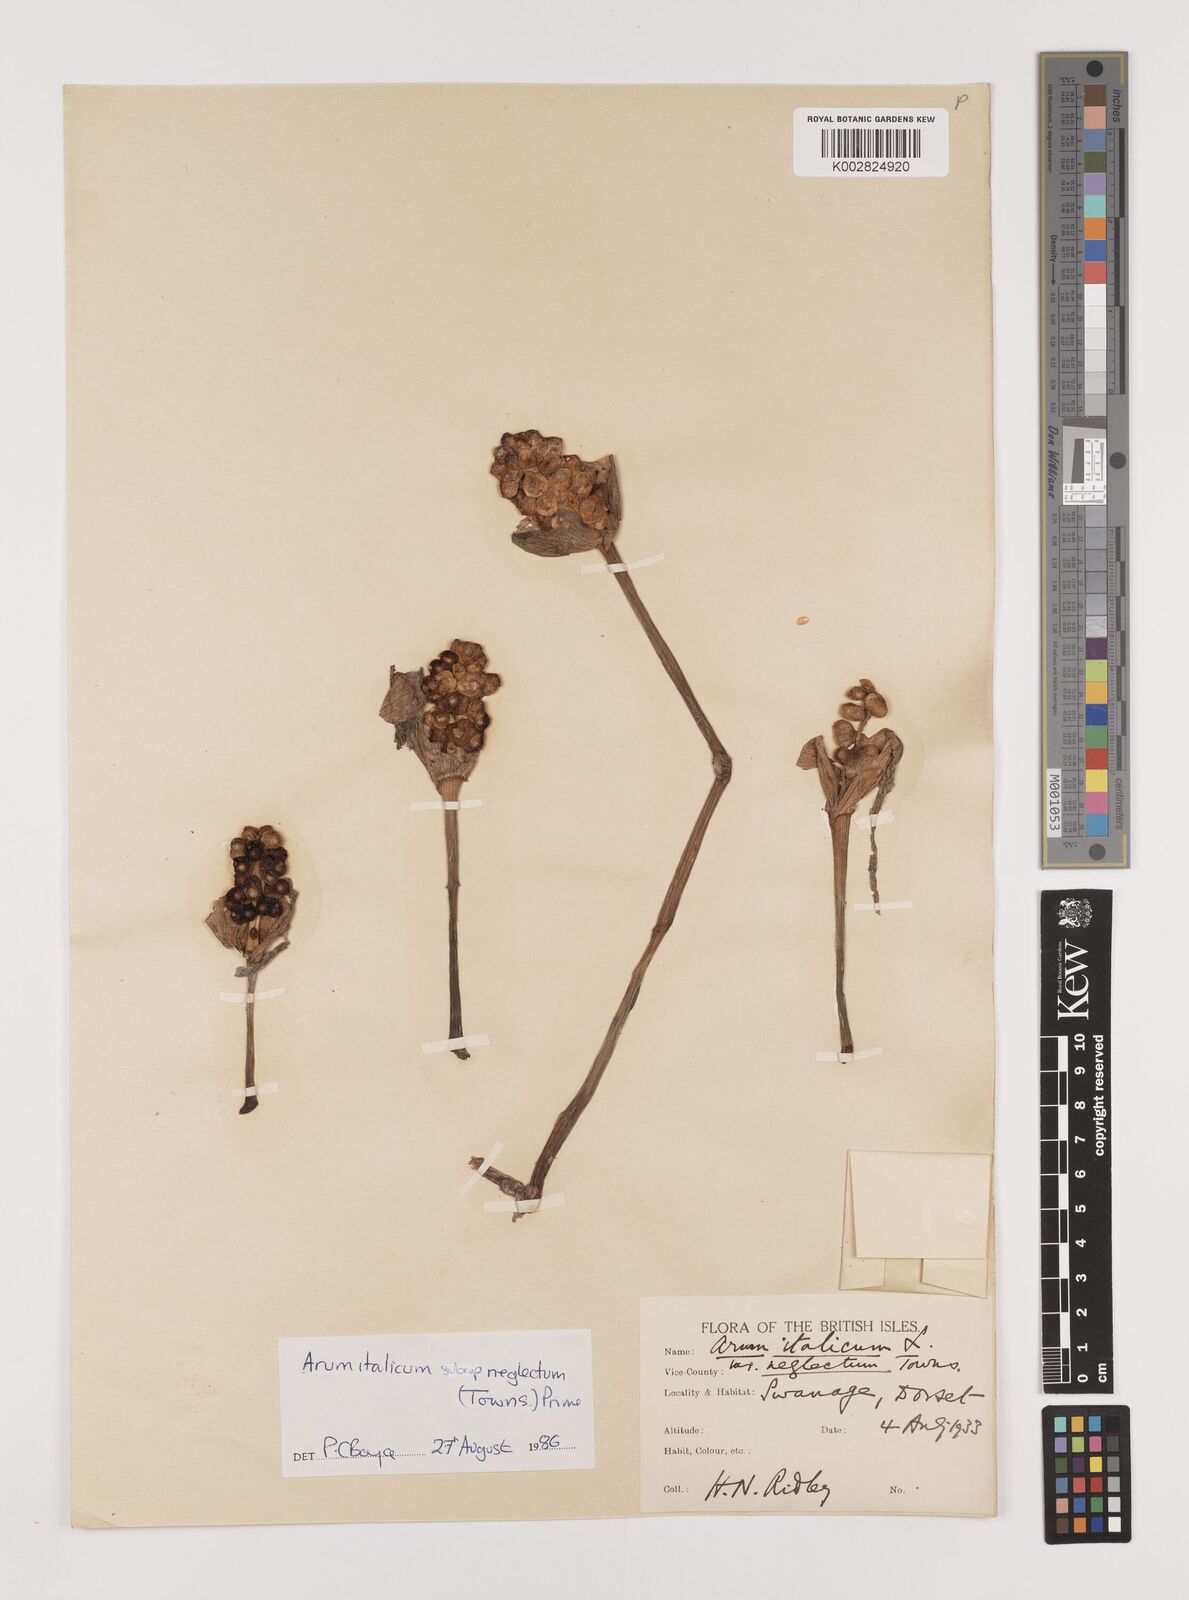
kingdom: Plantae
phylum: Tracheophyta
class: Liliopsida
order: Alismatales
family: Araceae
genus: Arum
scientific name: Arum italicum
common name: Italian lords-and-ladies
